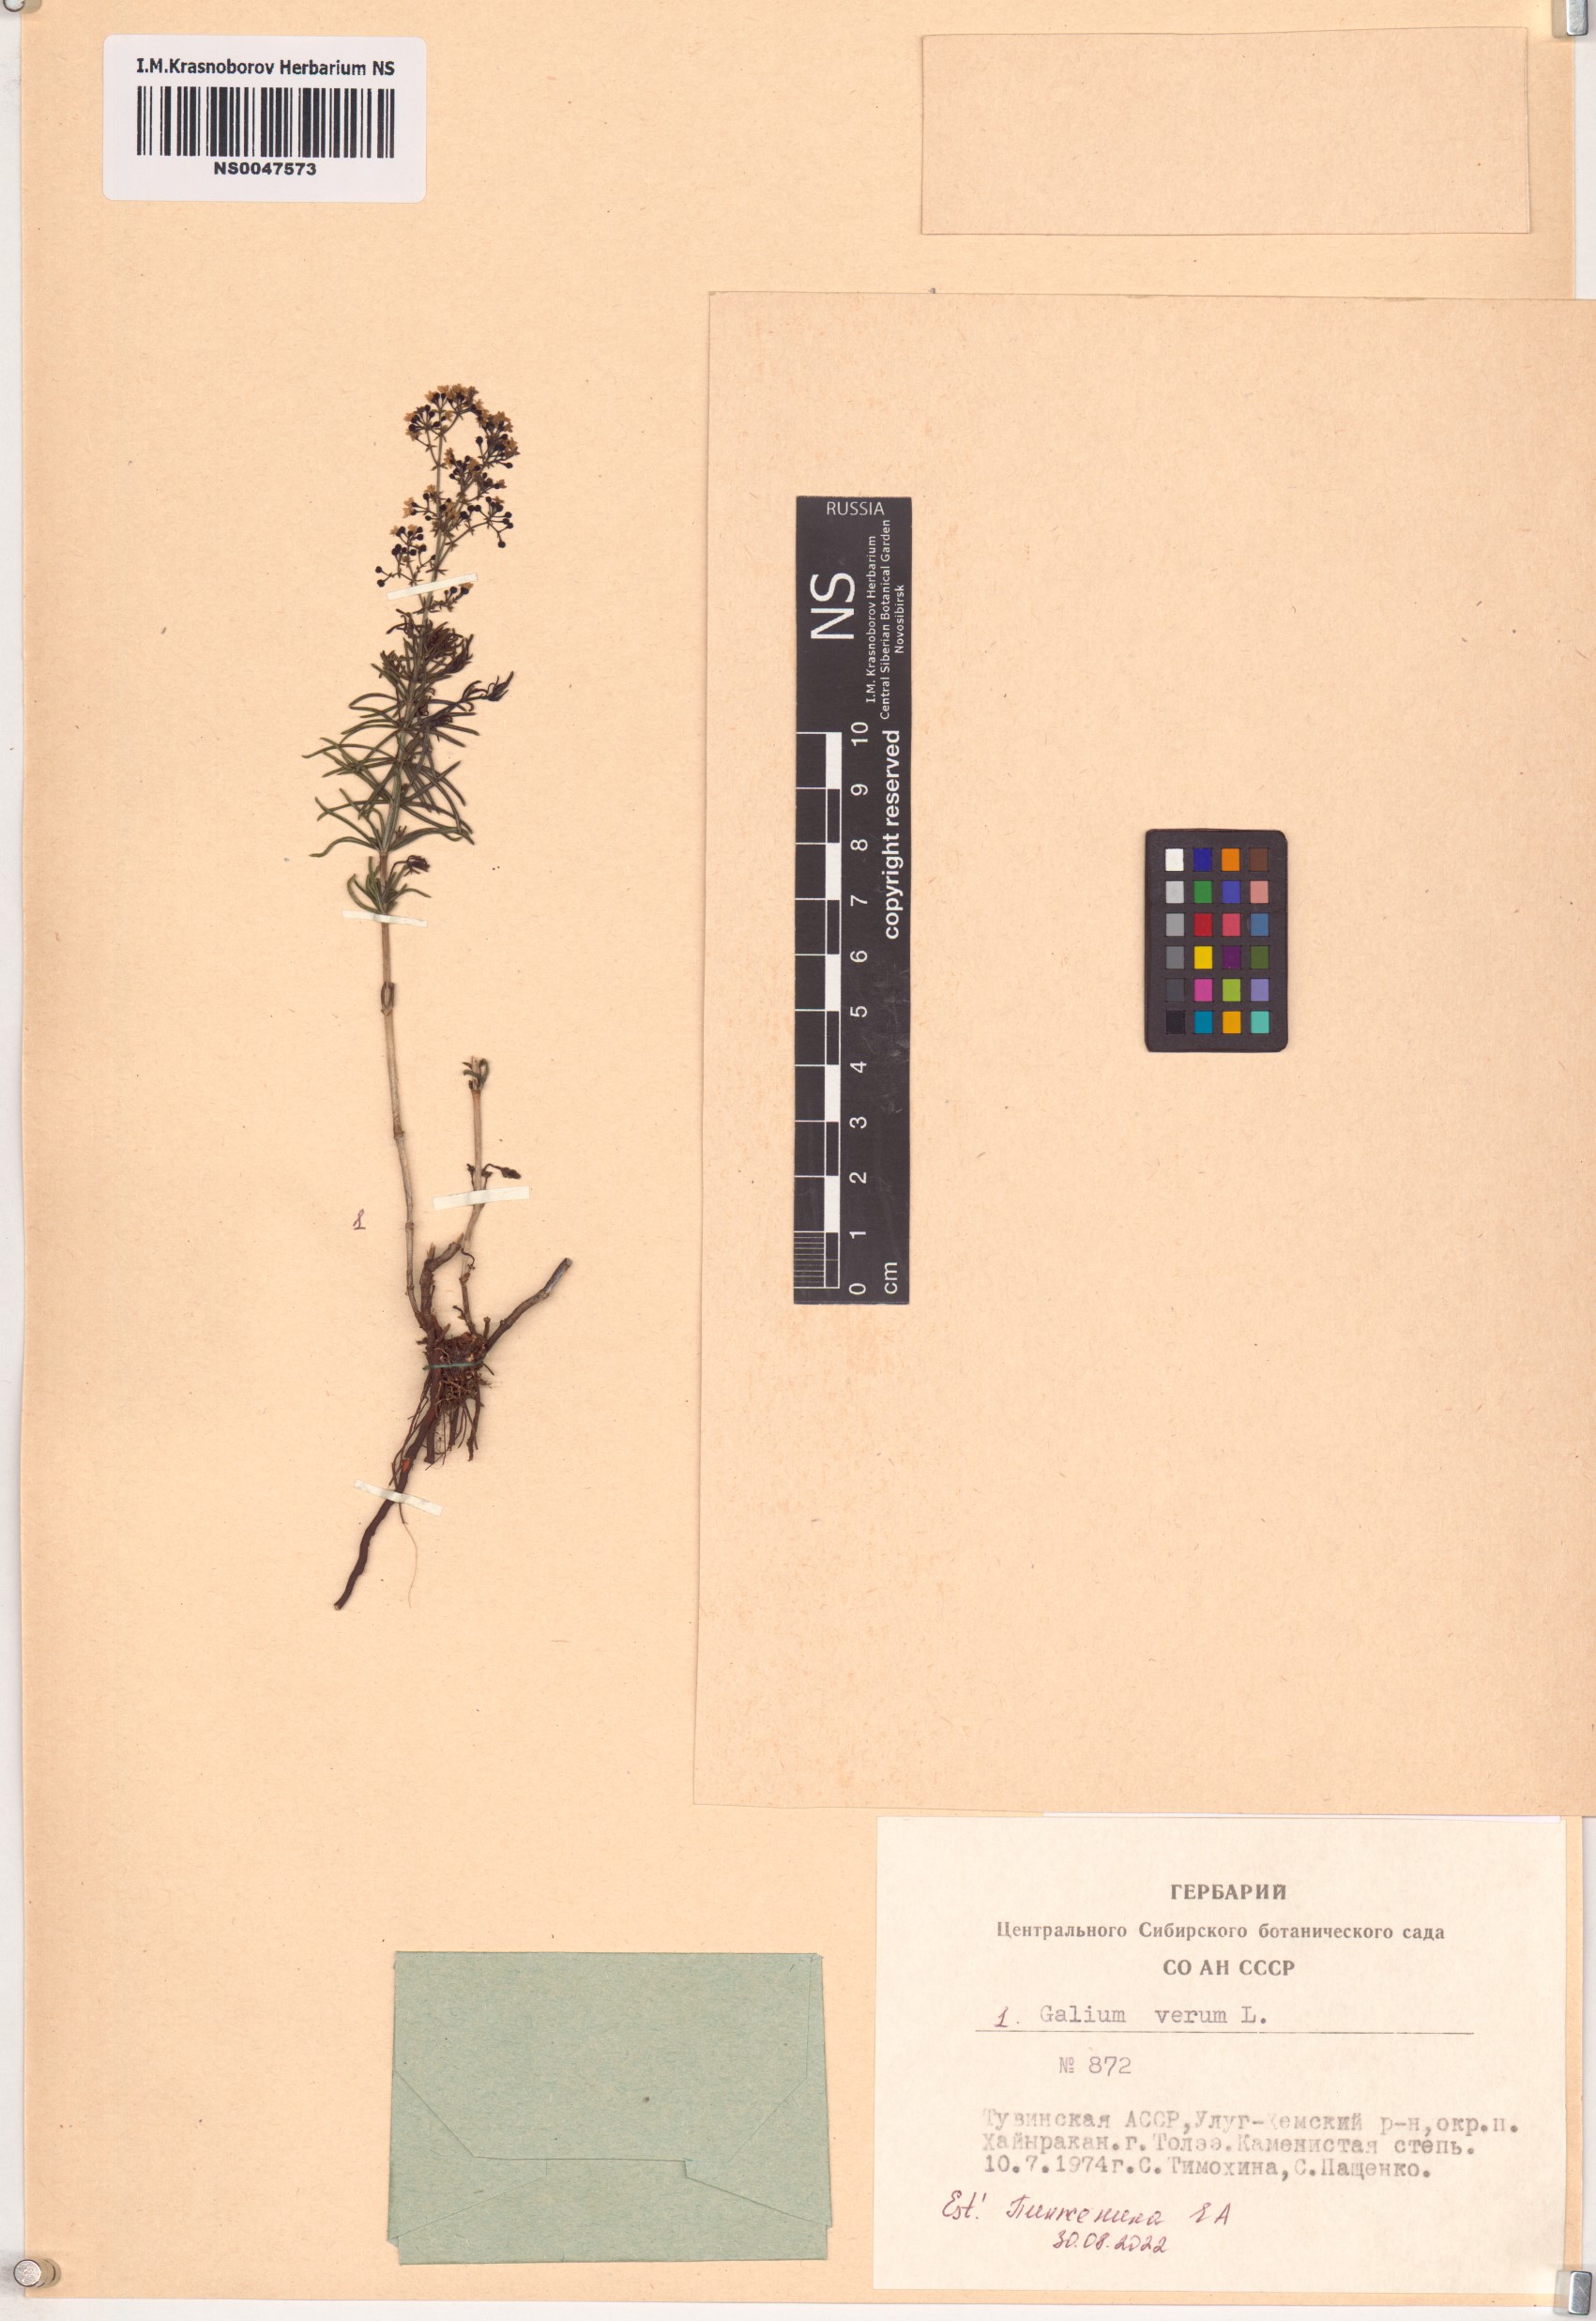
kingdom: Plantae
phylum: Tracheophyta
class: Magnoliopsida
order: Gentianales
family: Rubiaceae
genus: Galium
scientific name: Galium verum
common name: Lady's bedstraw
